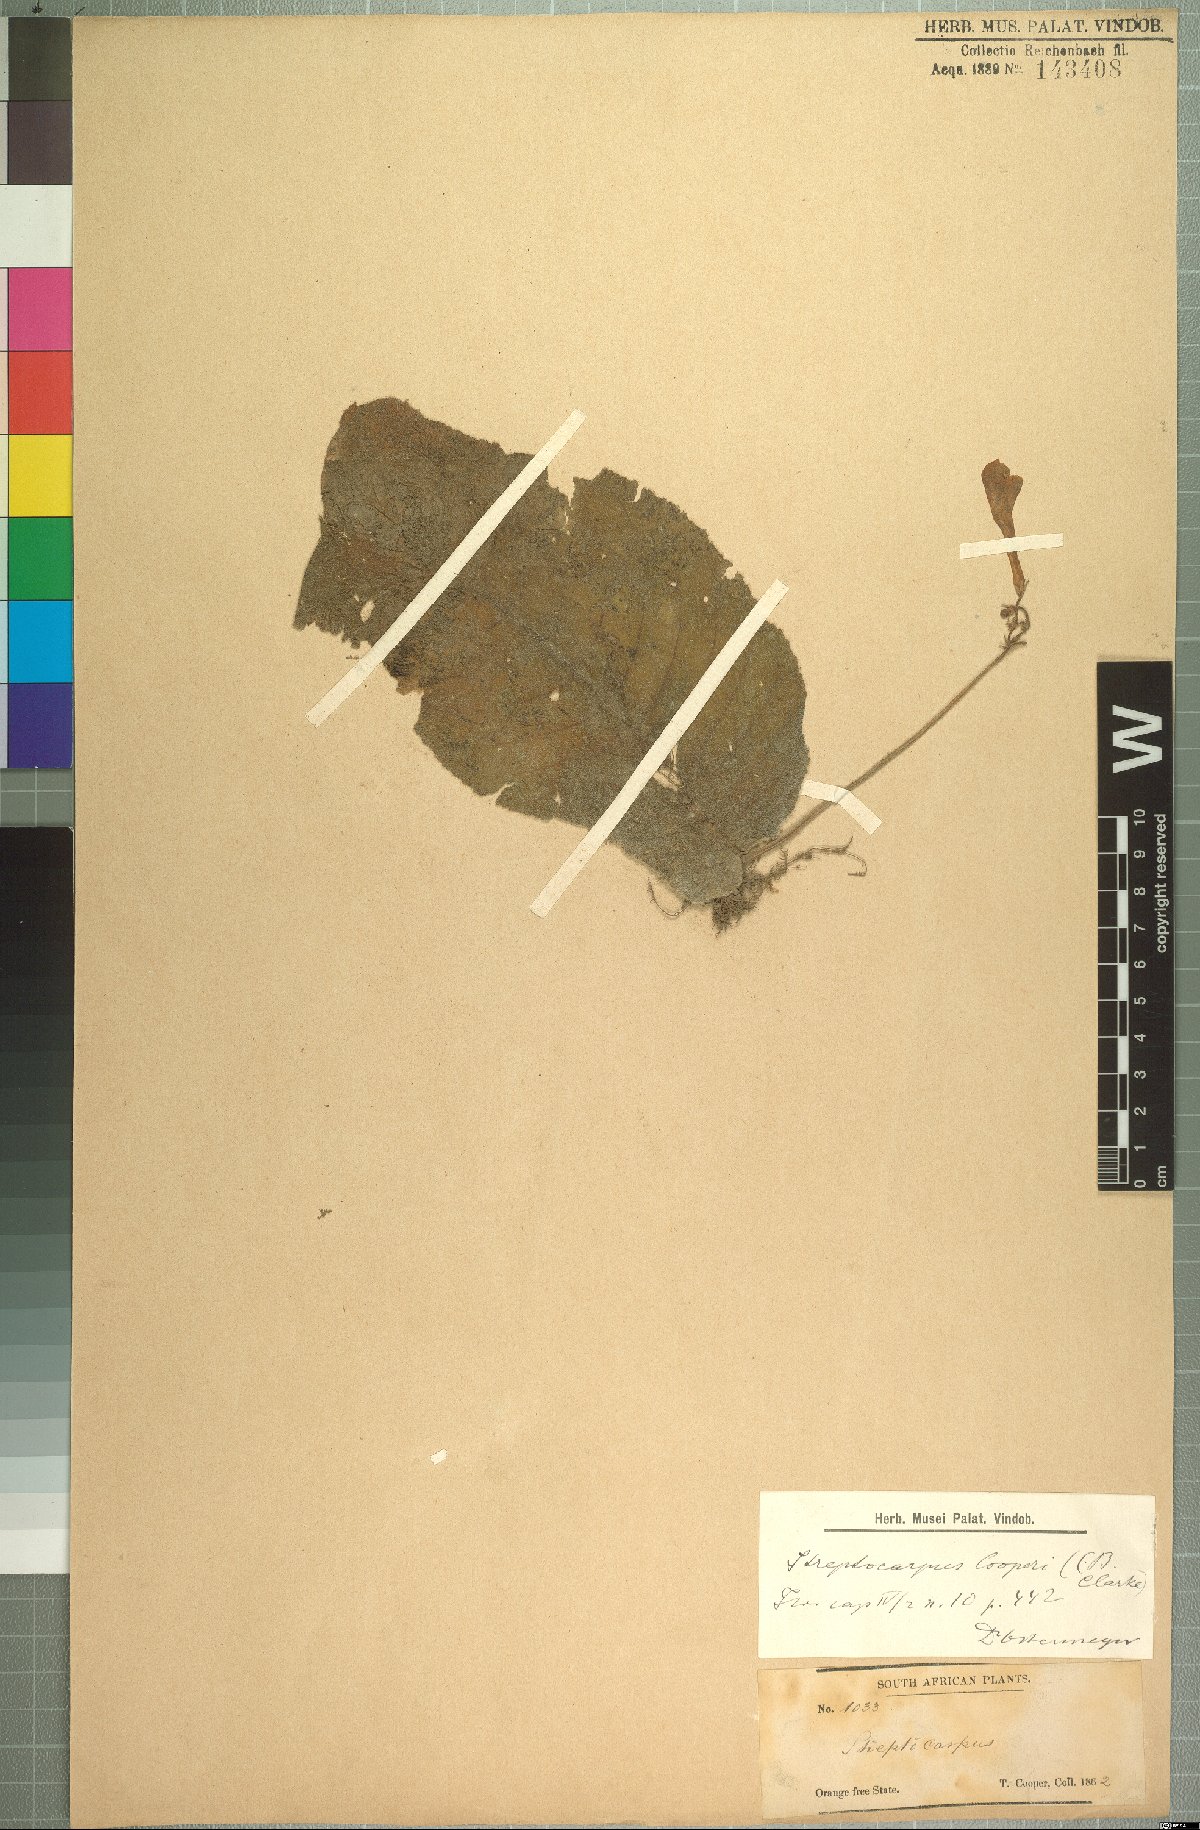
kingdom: Plantae
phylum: Tracheophyta
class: Magnoliopsida
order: Lamiales
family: Gesneriaceae
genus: Streptocarpus
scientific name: Streptocarpus cooperi
